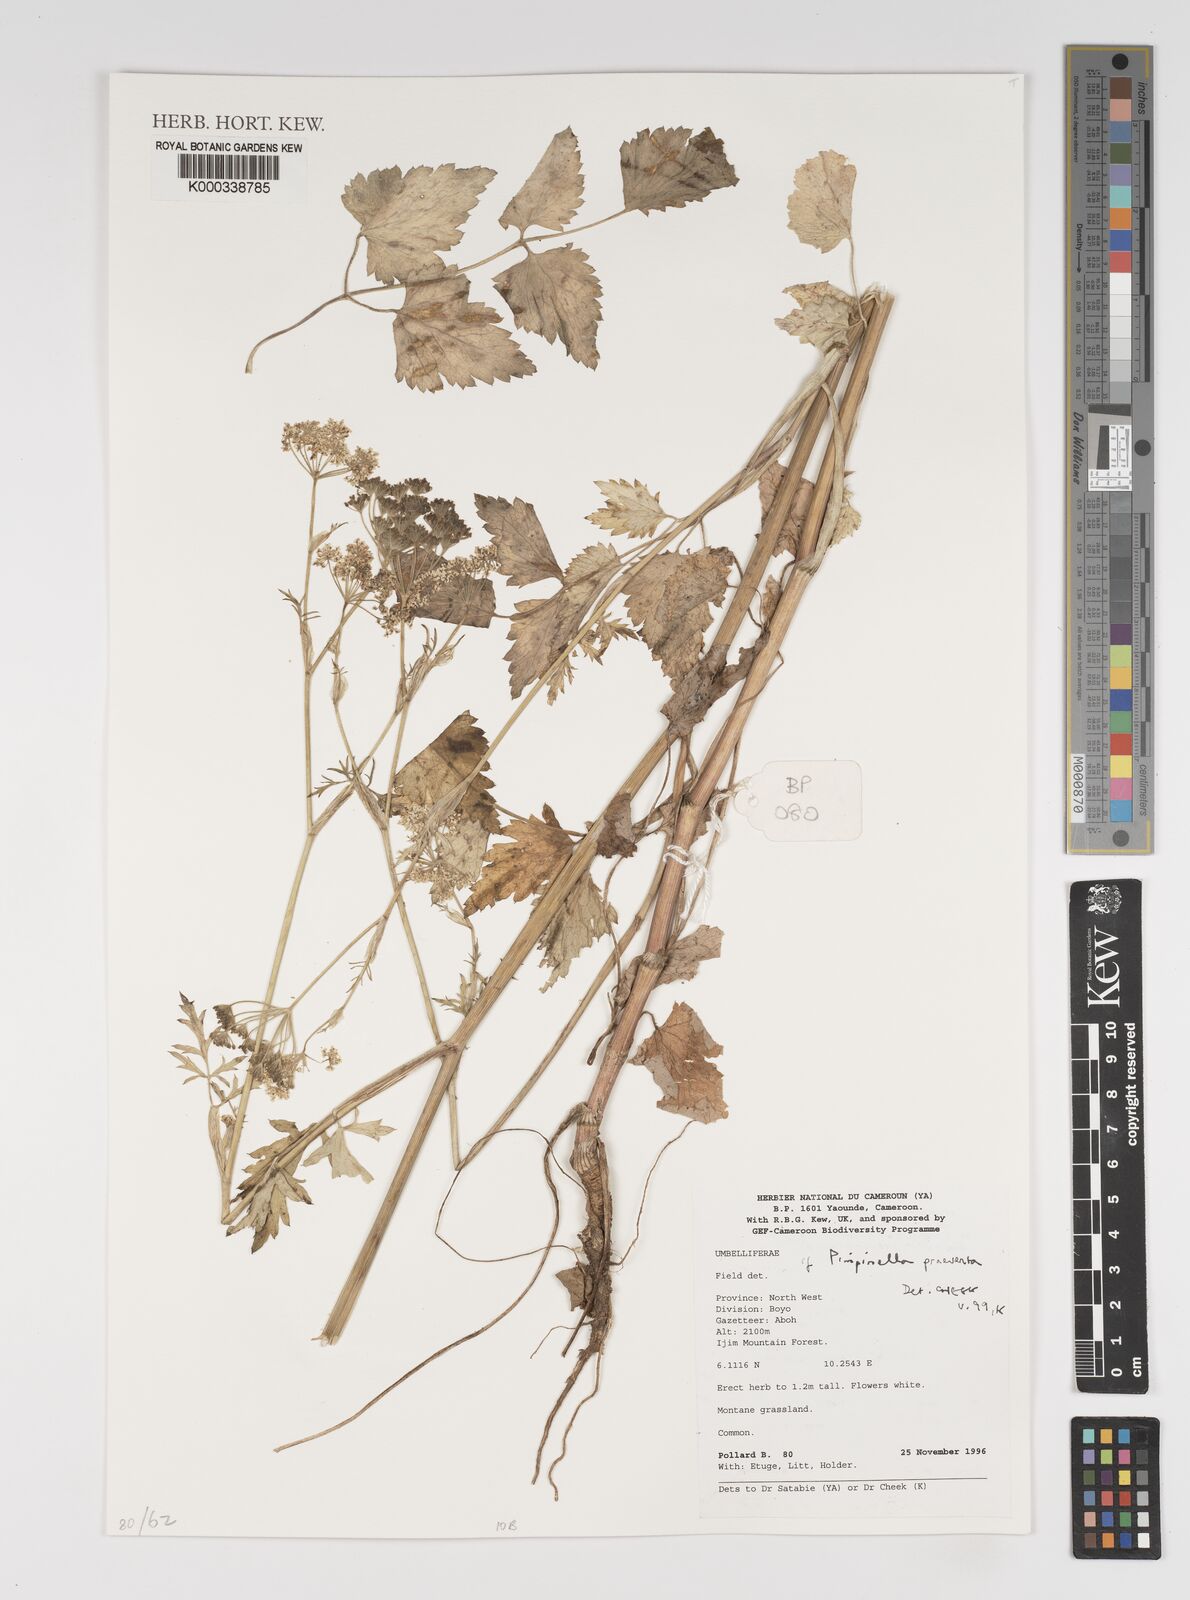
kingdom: Plantae
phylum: Tracheophyta
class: Magnoliopsida
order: Apiales
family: Apiaceae
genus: Pimpinella
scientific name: Pimpinella hirtella
